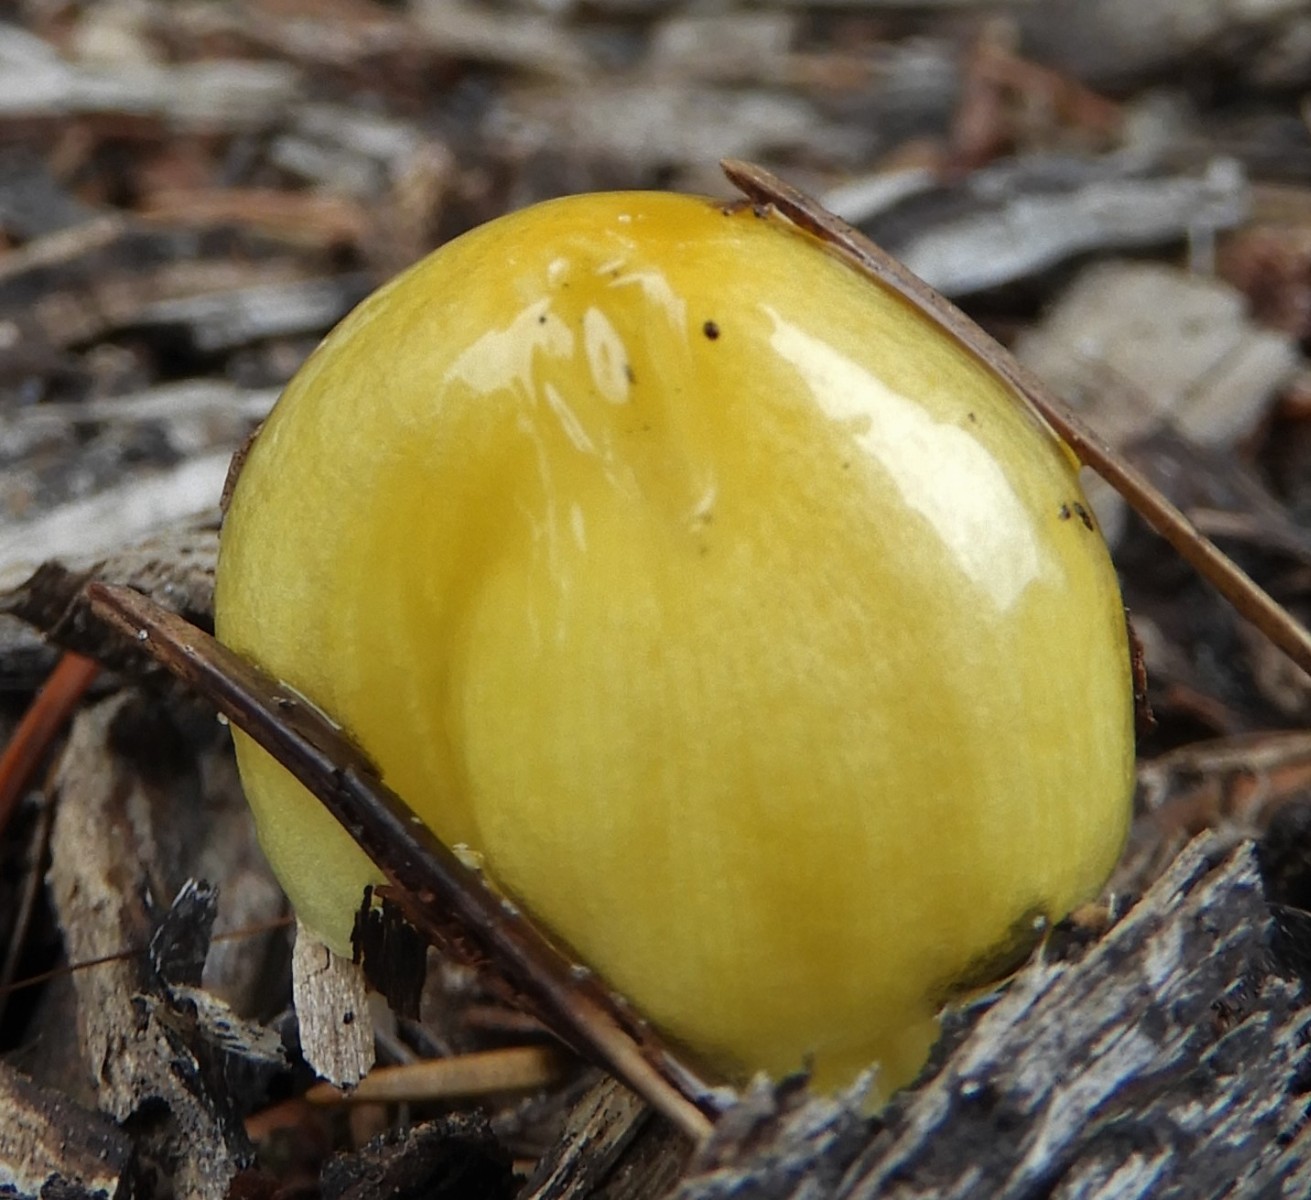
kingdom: Fungi
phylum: Basidiomycota
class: Agaricomycetes
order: Agaricales
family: Bolbitiaceae
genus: Bolbitius
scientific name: Bolbitius titubans
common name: almindelig gulhat
